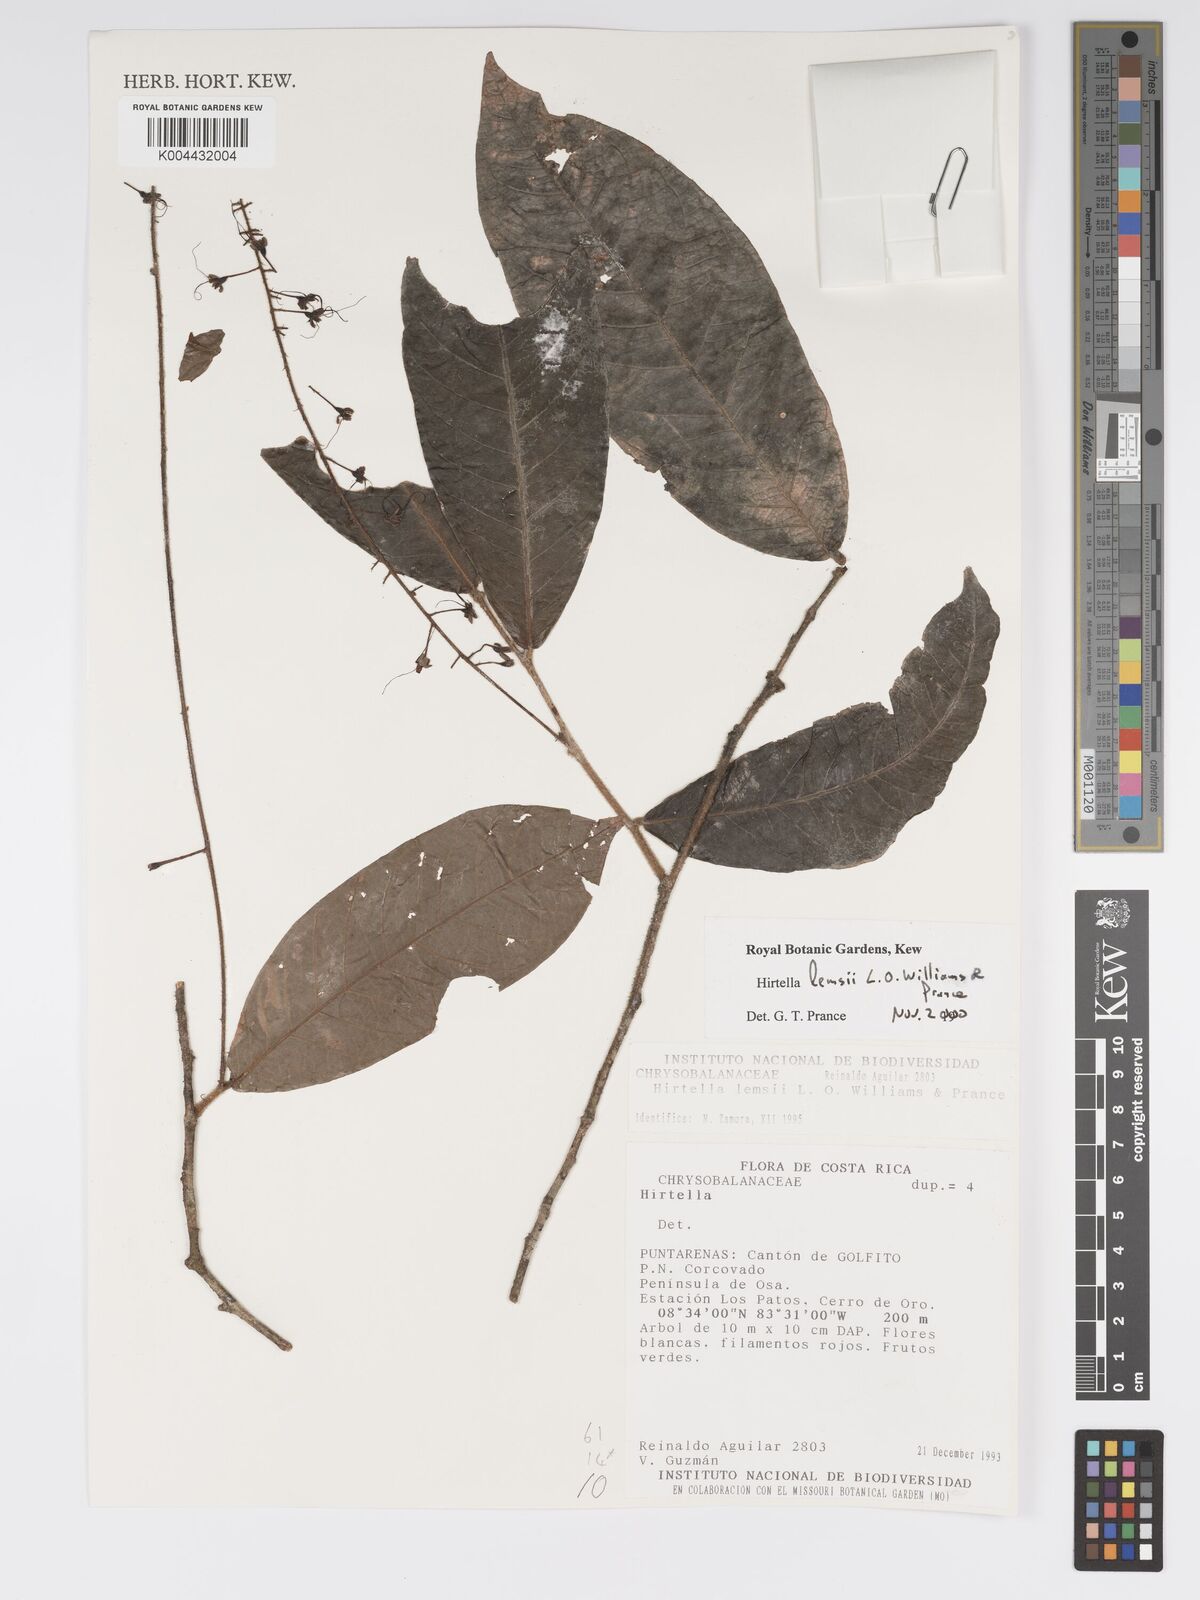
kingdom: Plantae
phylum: Tracheophyta
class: Magnoliopsida
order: Malpighiales
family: Chrysobalanaceae
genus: Hirtella
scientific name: Hirtella lemsii
